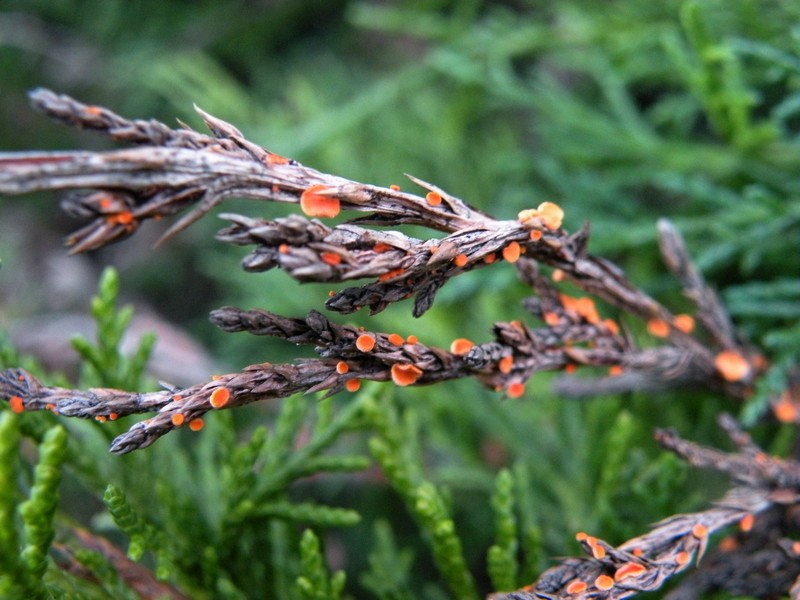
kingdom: Fungi
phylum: Ascomycota
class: Pezizomycetes
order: Pezizales
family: Sarcoscyphaceae
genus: Pithya
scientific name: Pithya cupressina
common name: lille dukatbæger
